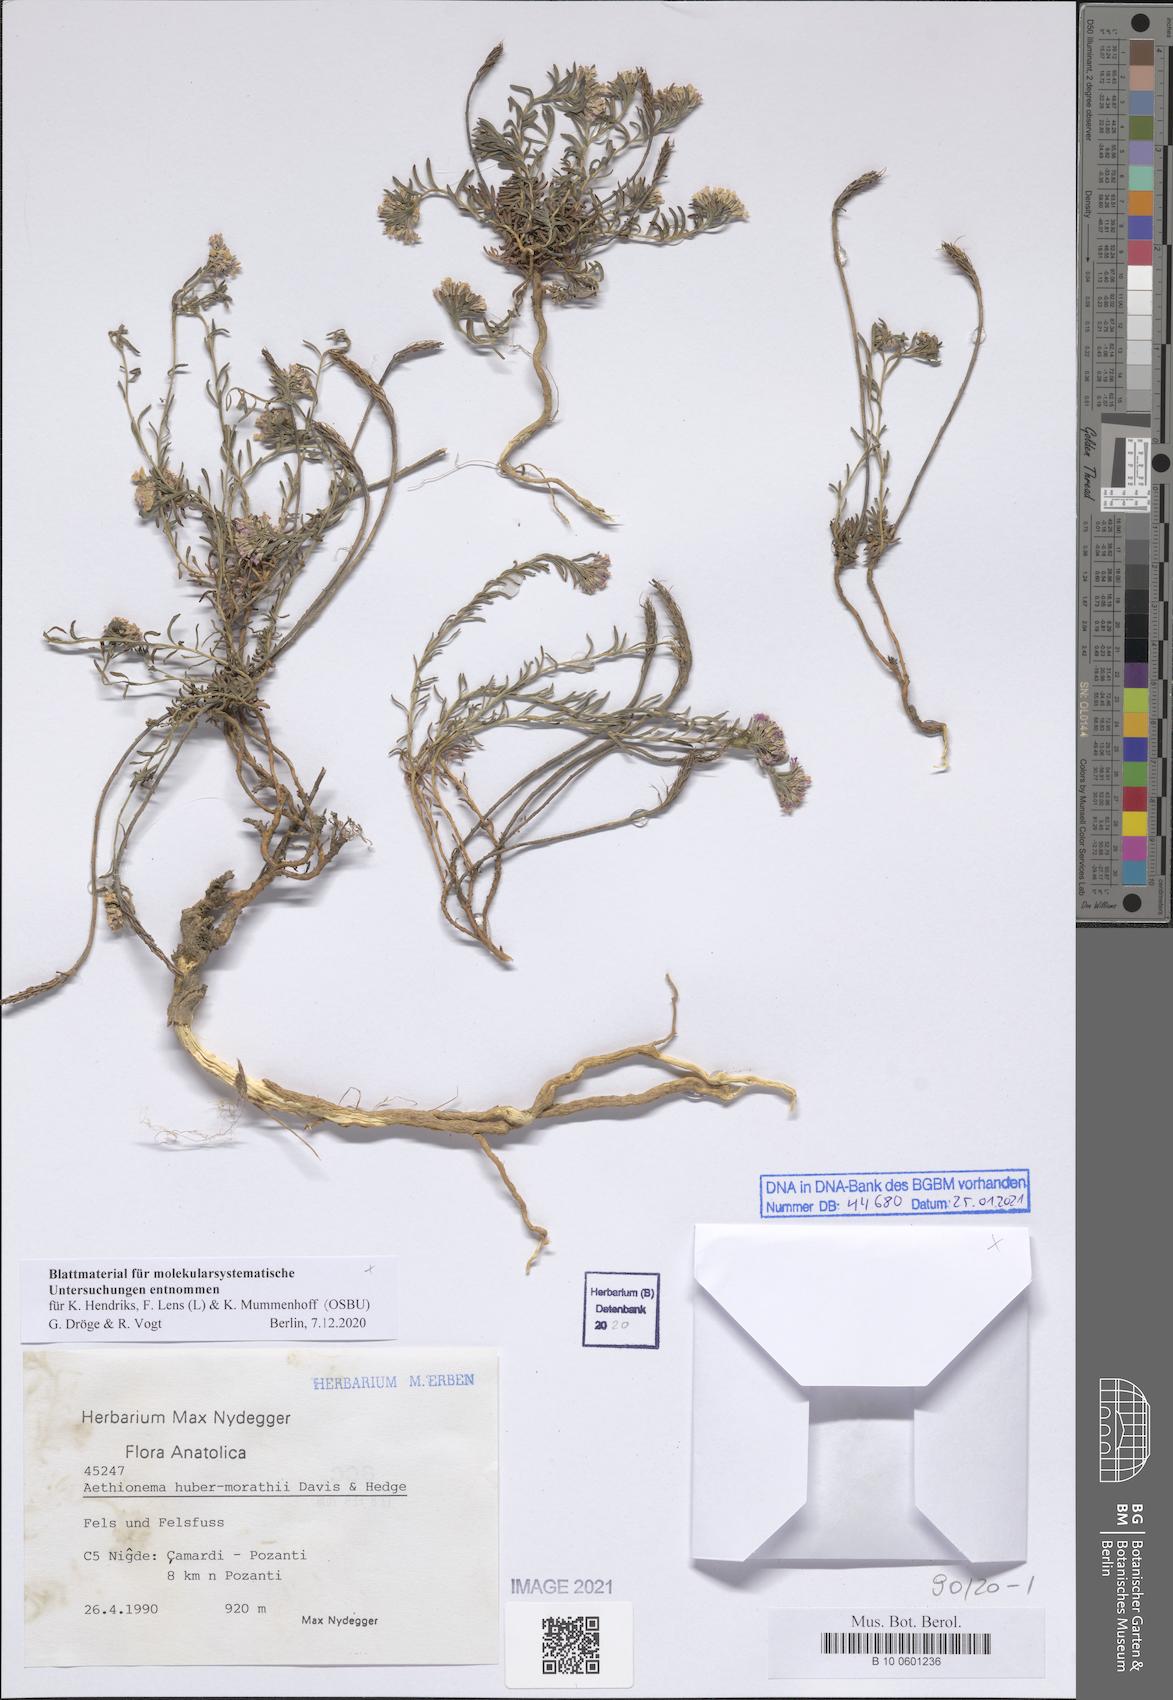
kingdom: Plantae
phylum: Tracheophyta
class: Magnoliopsida
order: Brassicales
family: Brassicaceae
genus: Aethionema
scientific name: Aethionema huber-morathii
